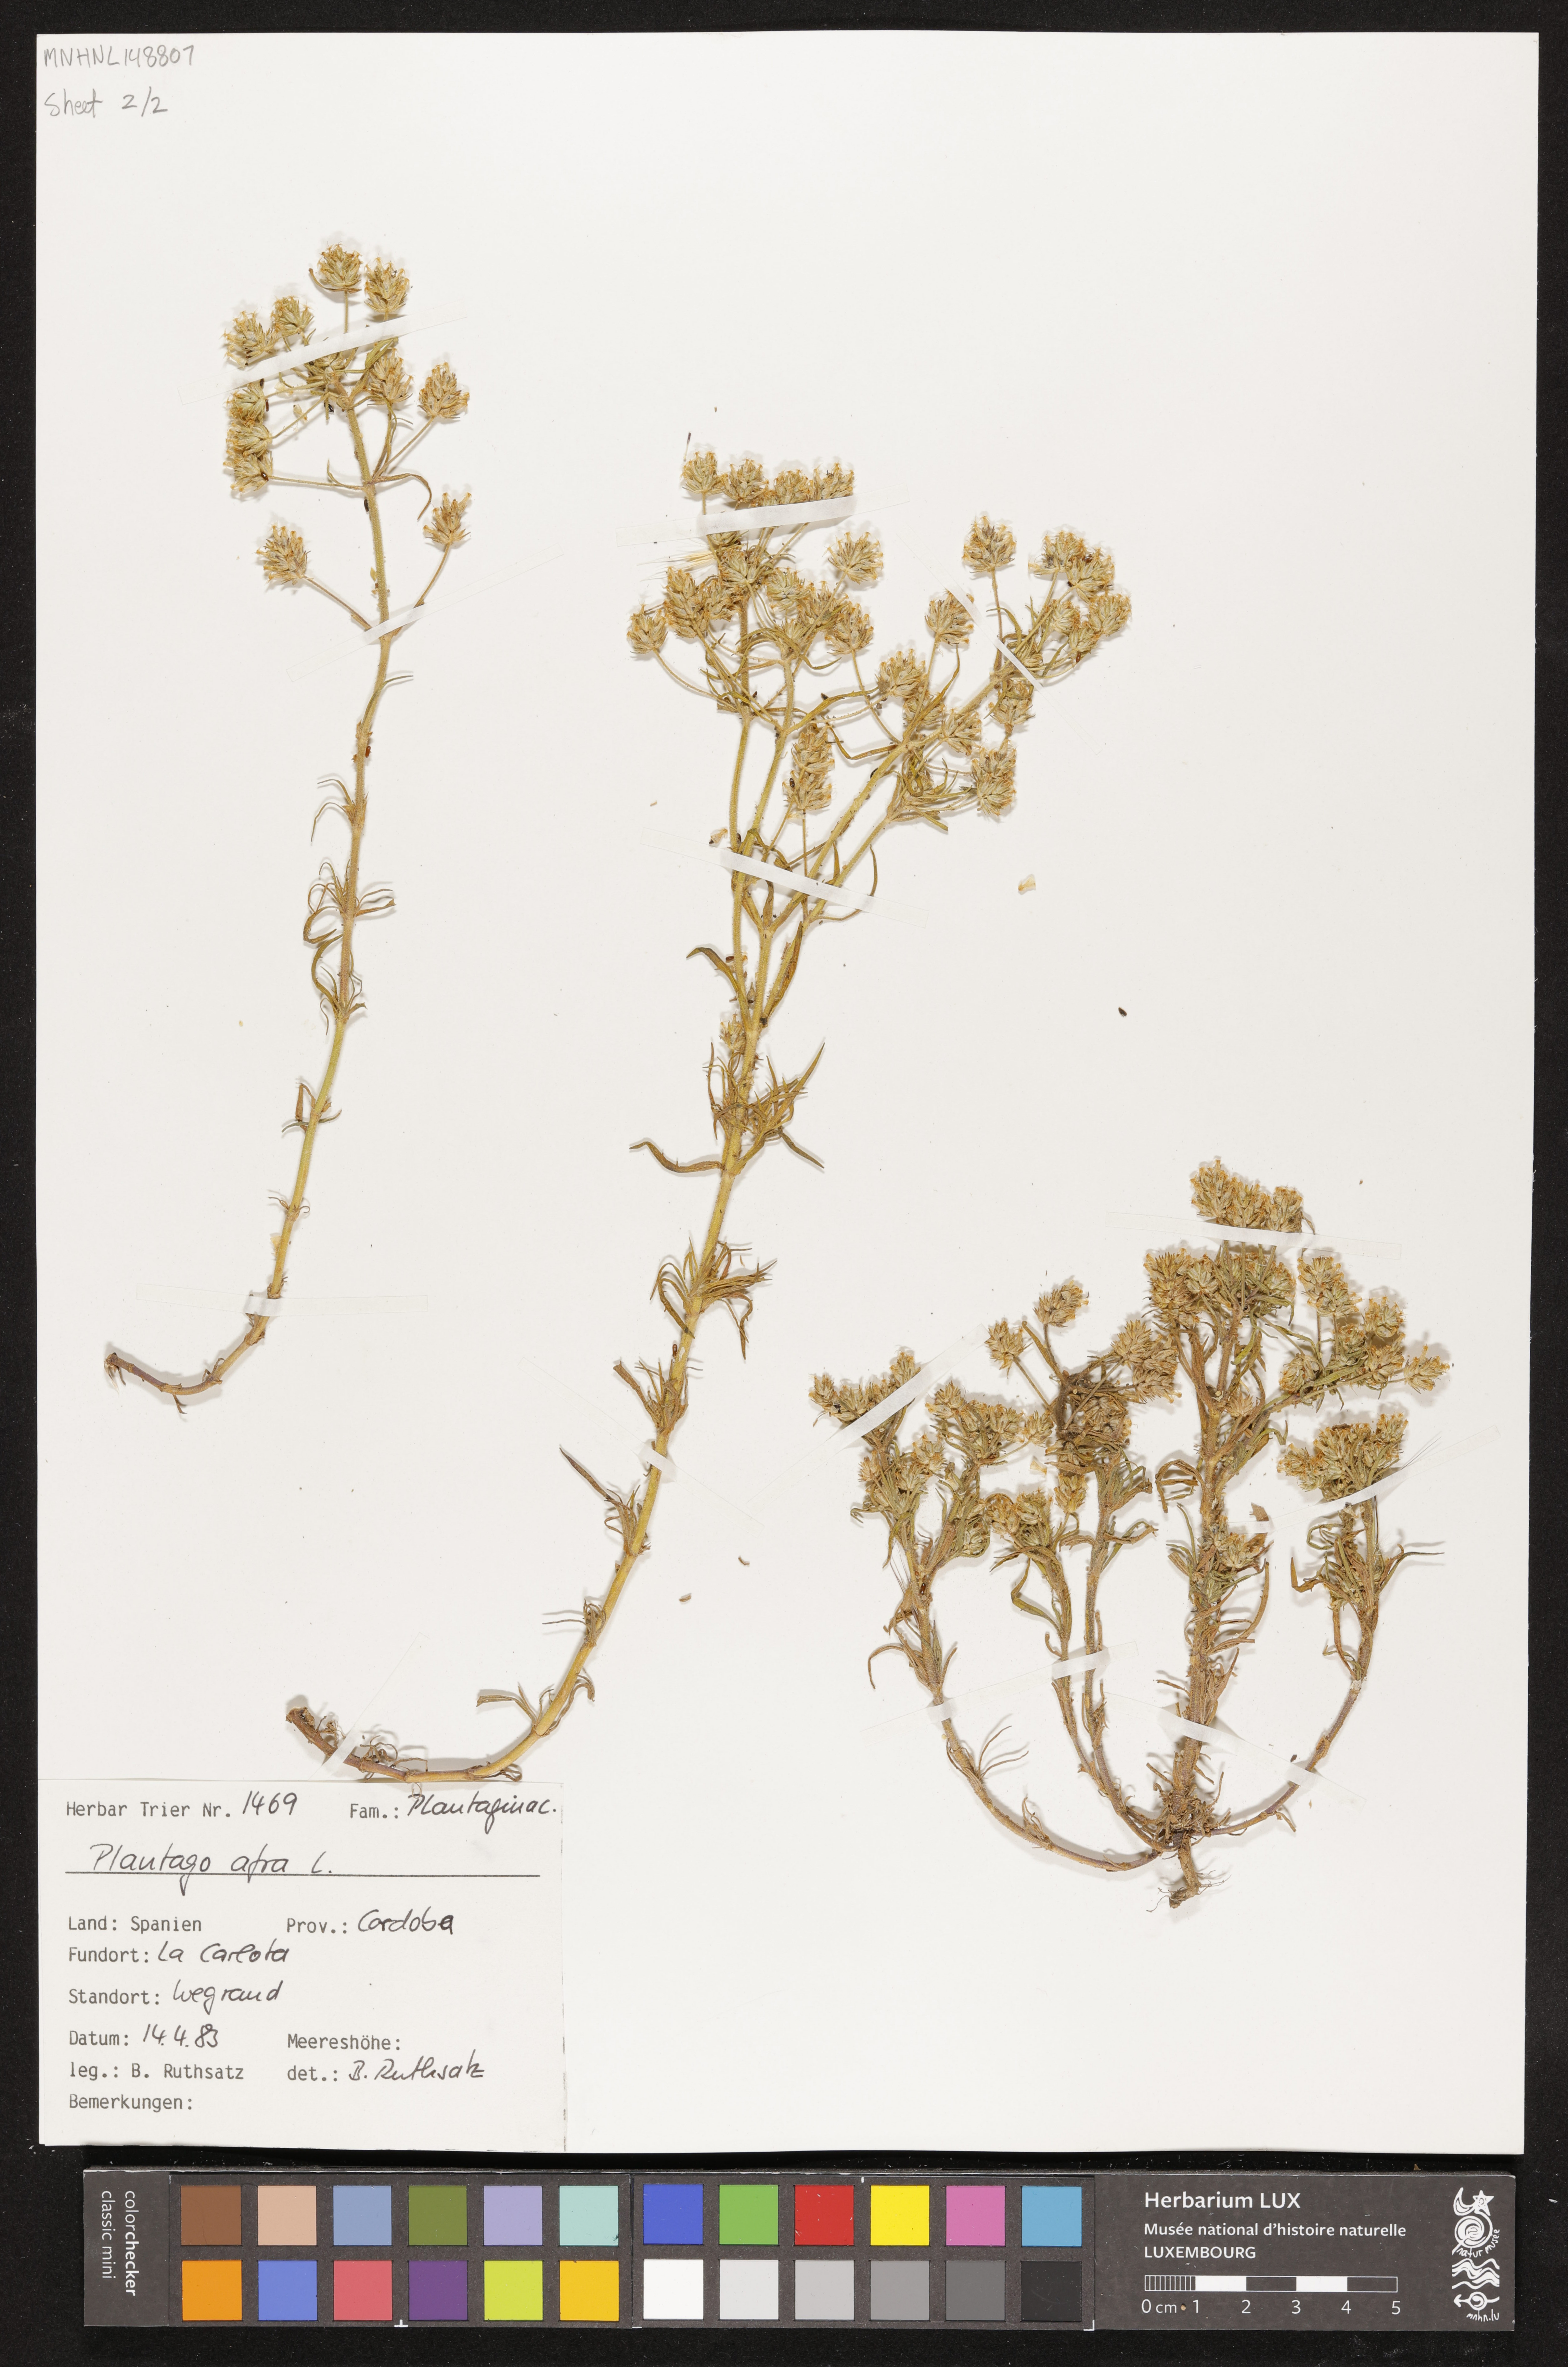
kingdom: Plantae
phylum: Tracheophyta
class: Magnoliopsida
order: Lamiales
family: Plantaginaceae
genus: Plantago
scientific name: Plantago afra
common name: Glandular plantain
